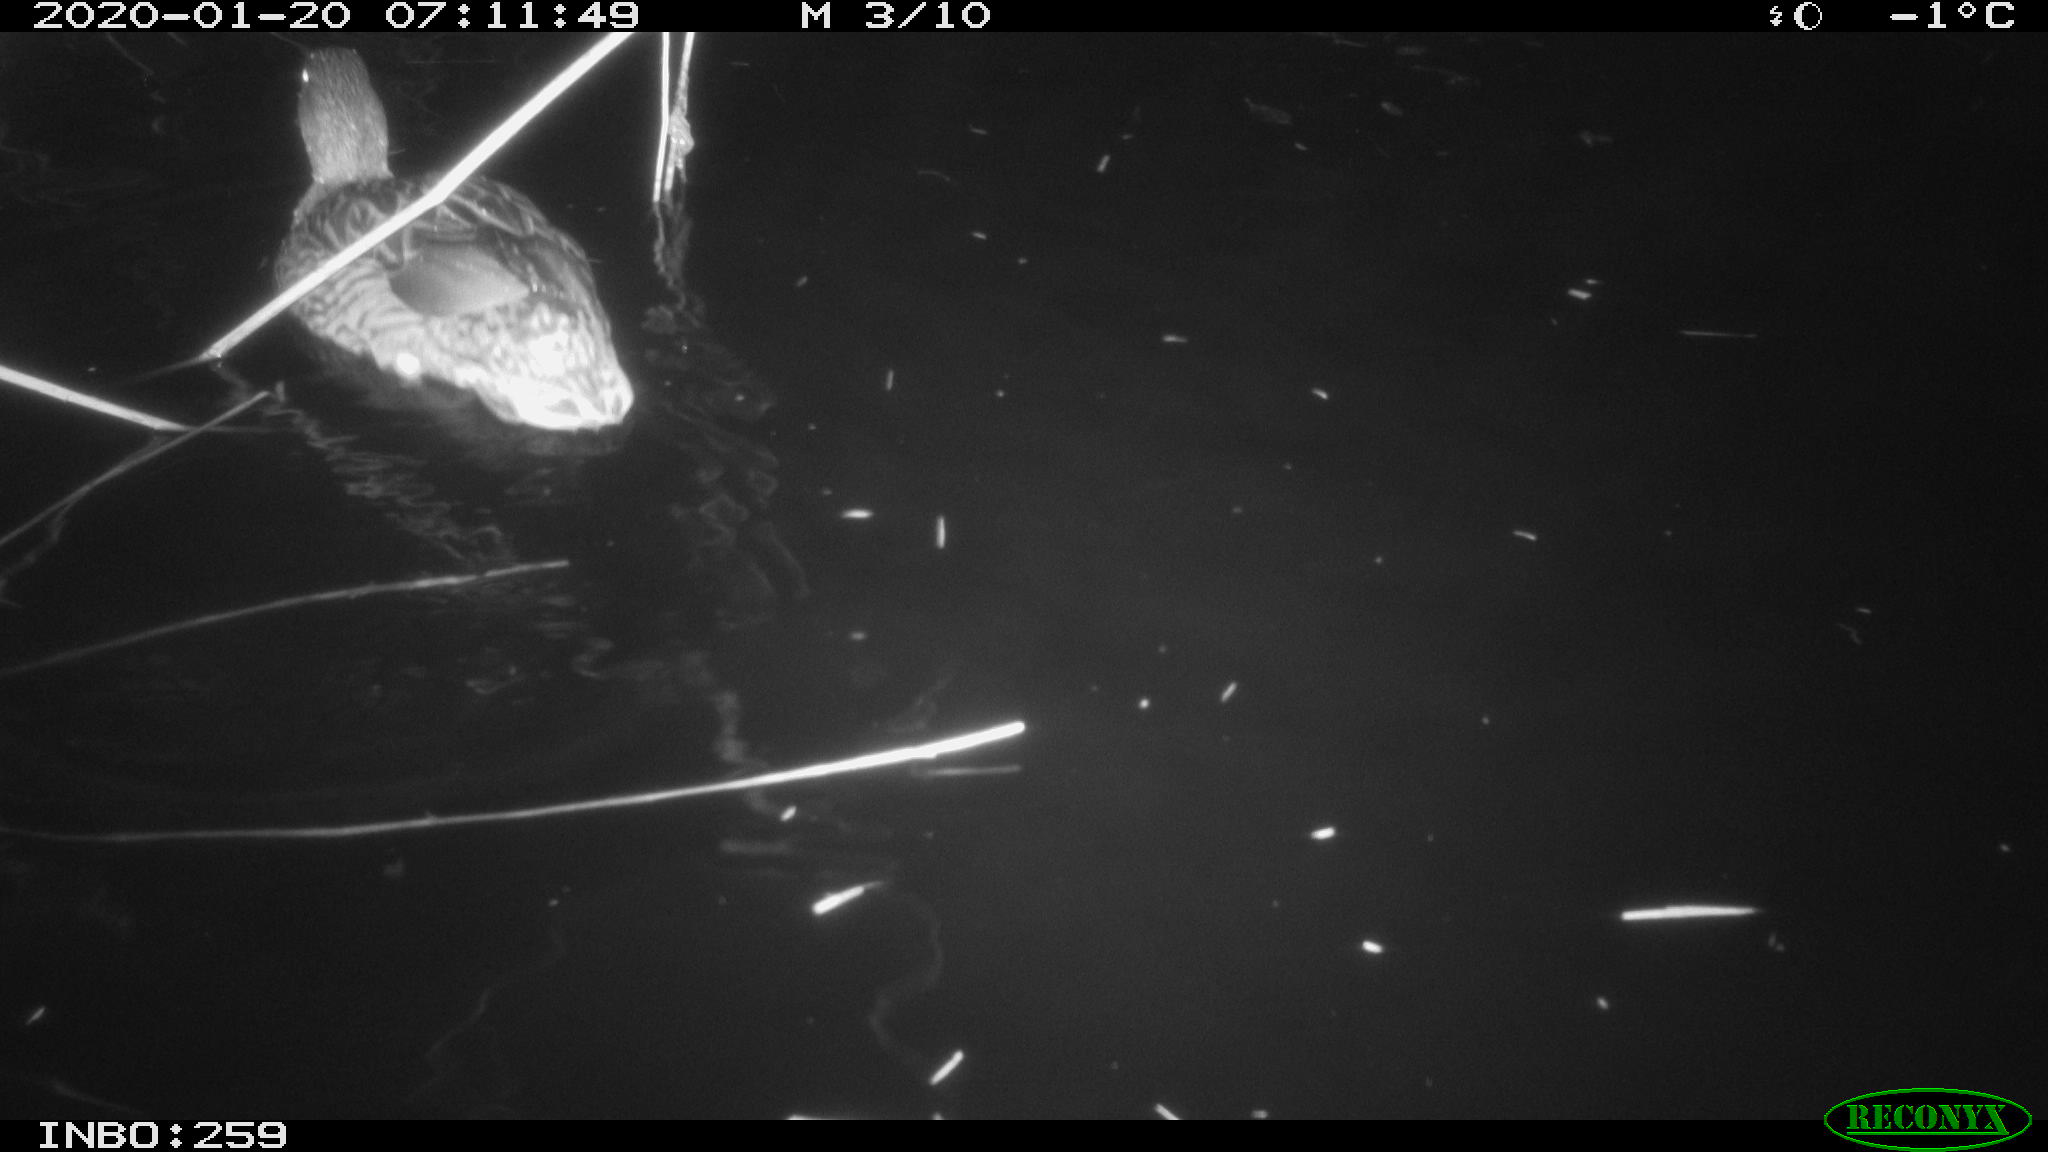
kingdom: Animalia
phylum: Chordata
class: Aves
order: Anseriformes
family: Anatidae
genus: Anas
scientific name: Anas platyrhynchos
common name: Mallard
